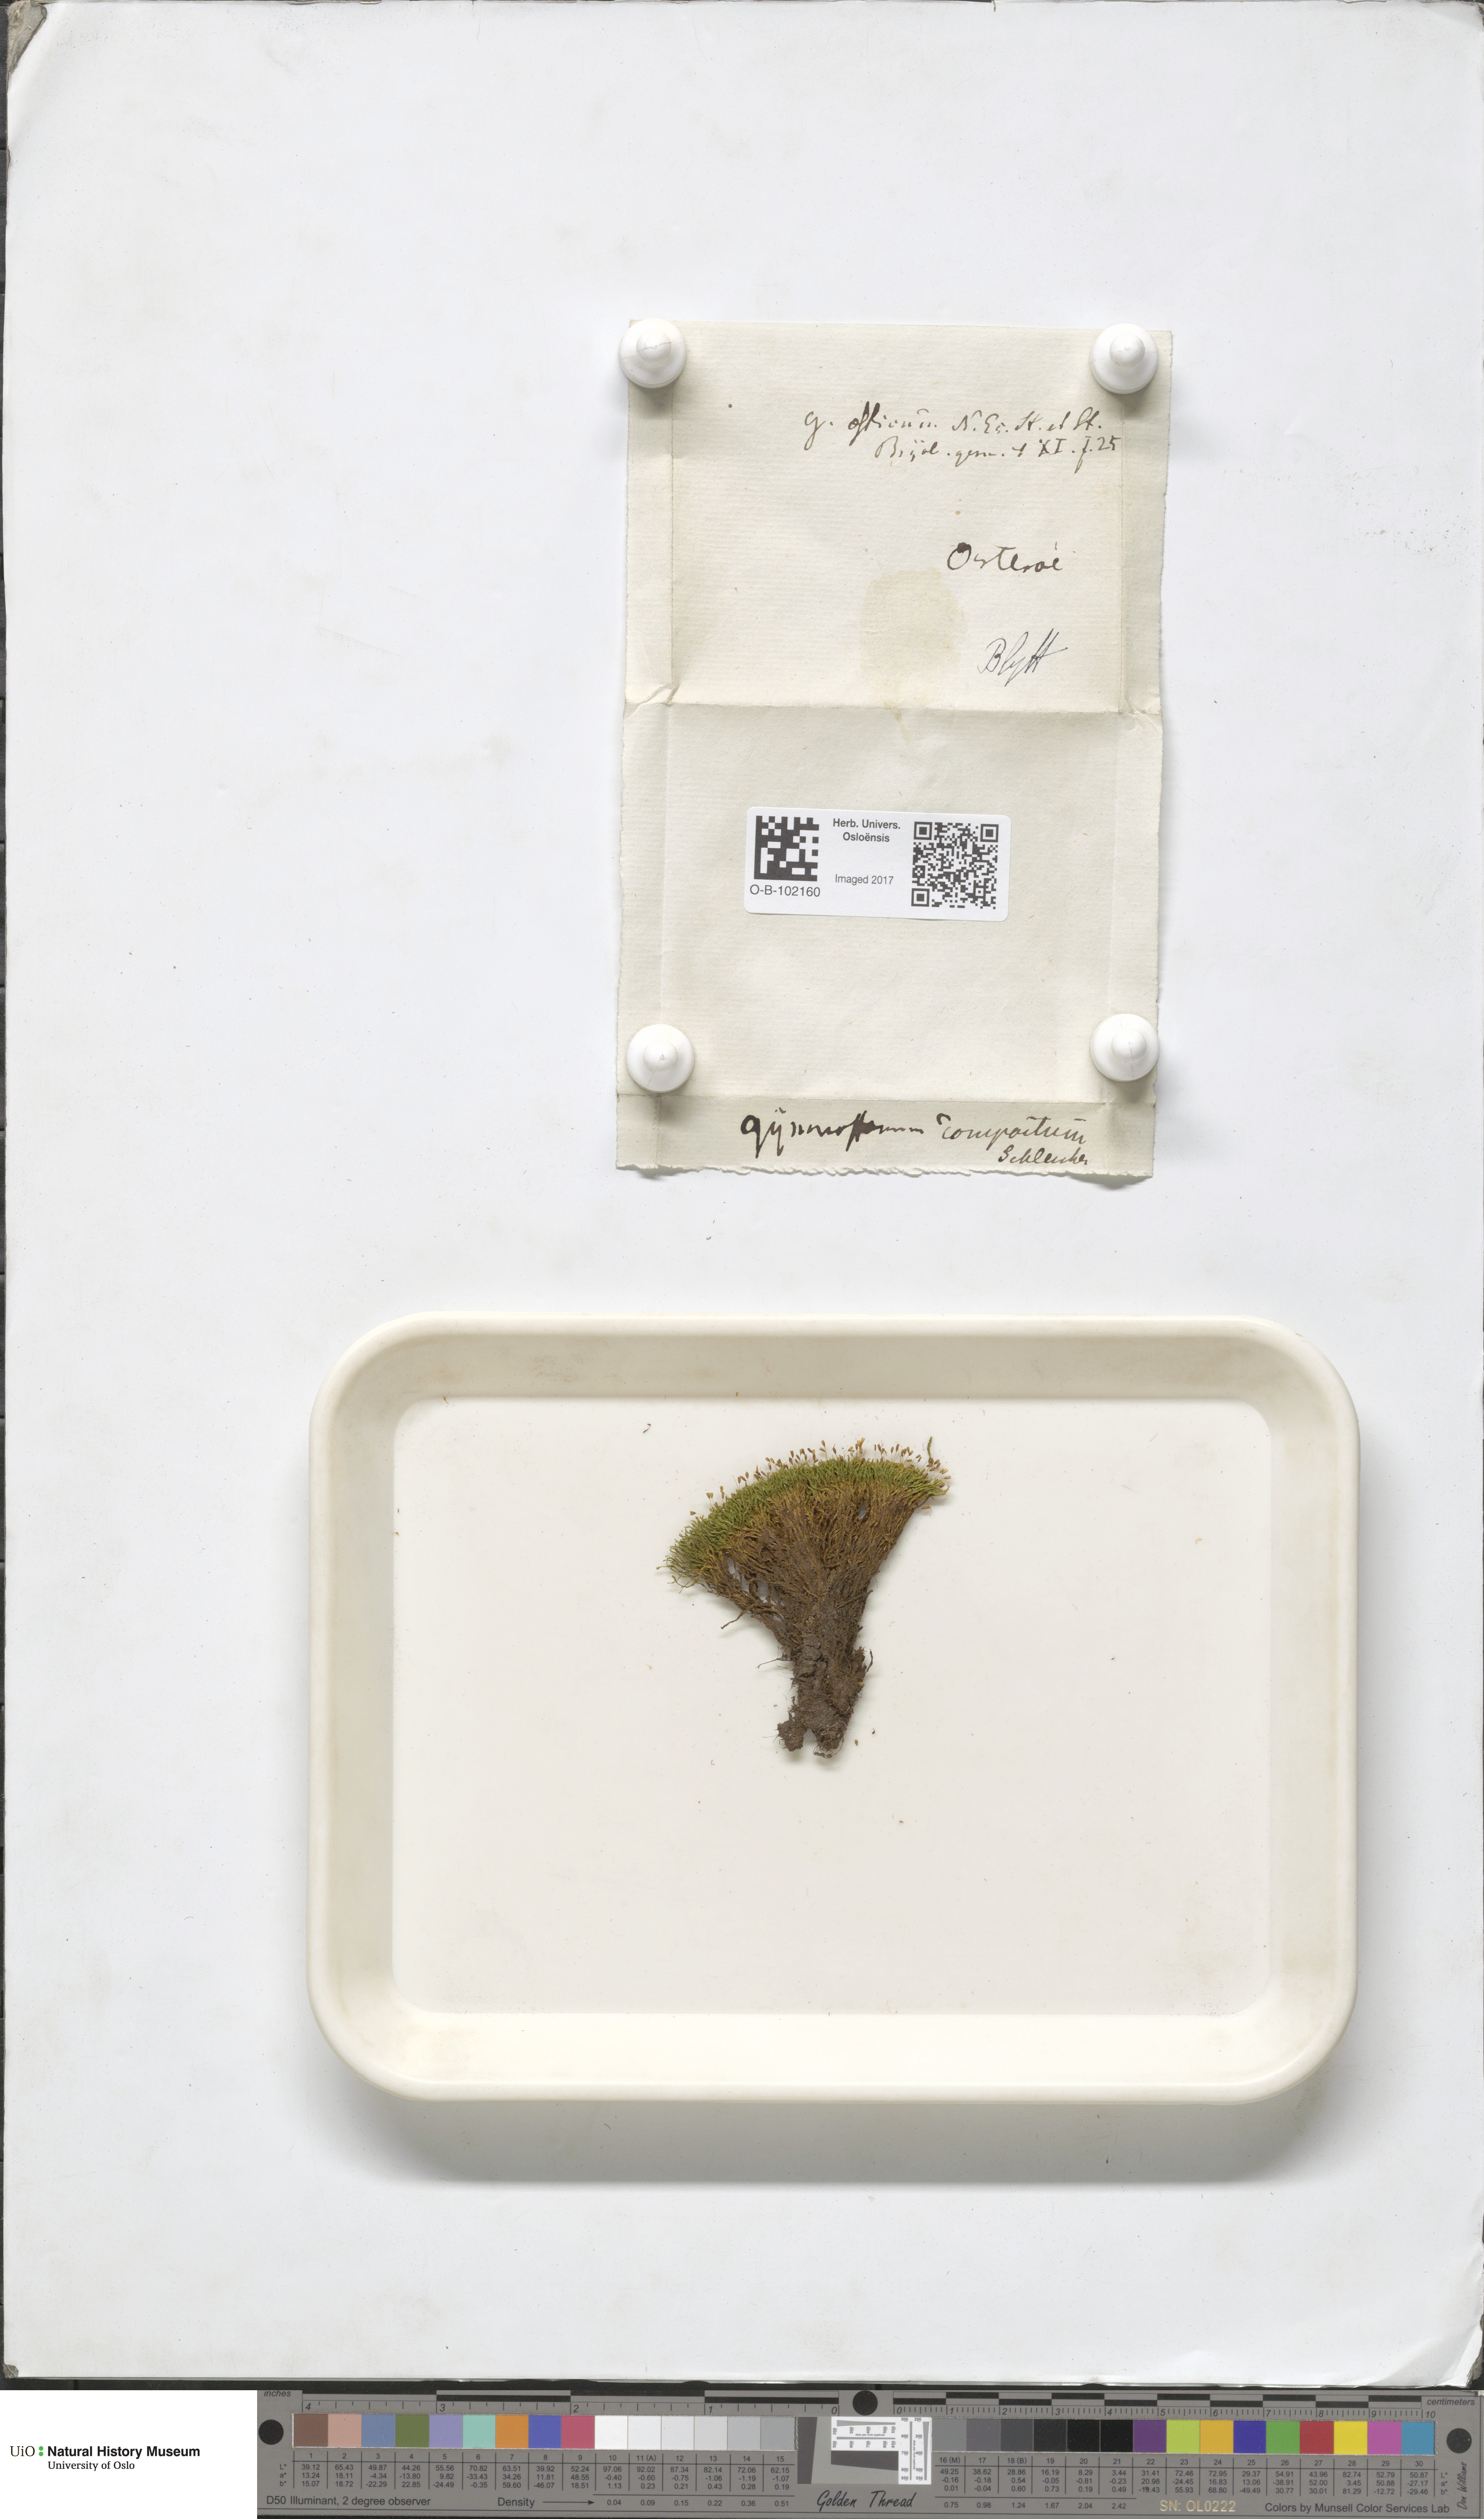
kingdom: Plantae
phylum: Bryophyta
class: Bryopsida
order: Pottiales
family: Pottiaceae
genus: Anoectangium
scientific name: Anoectangium aestivum
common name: Summer-moss
